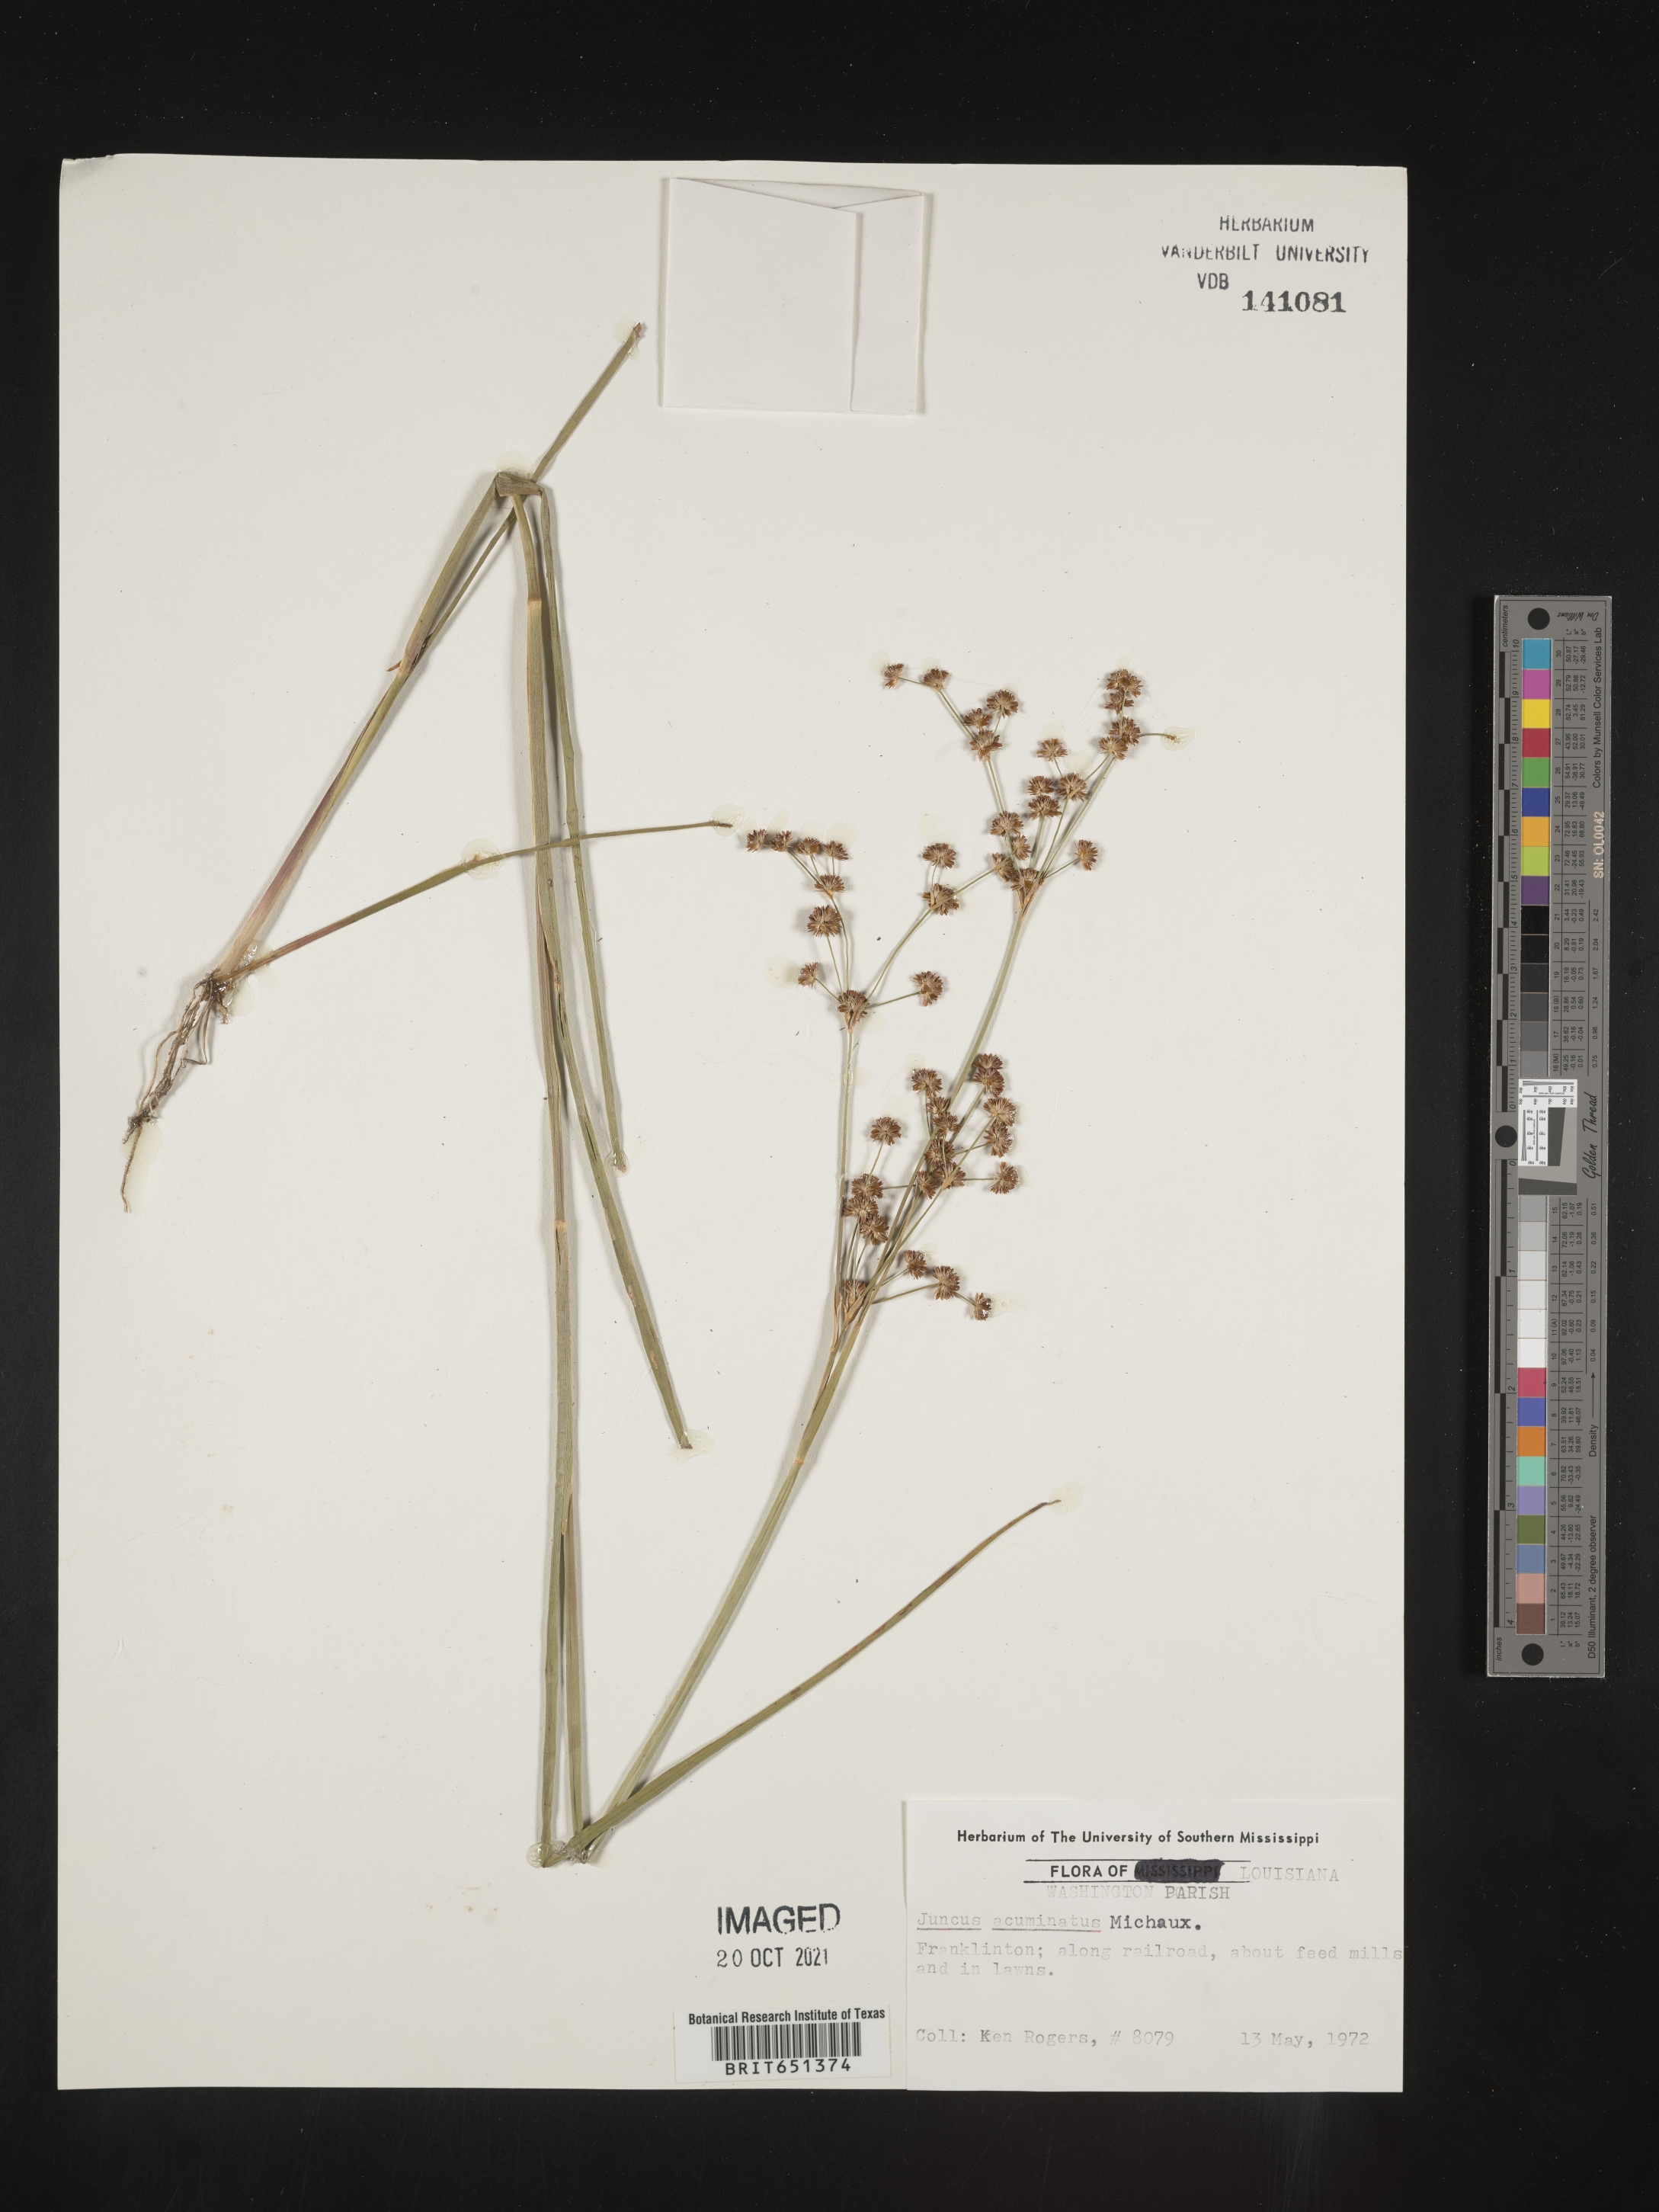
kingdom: Plantae
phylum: Tracheophyta
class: Liliopsida
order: Poales
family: Juncaceae
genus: Juncus
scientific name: Juncus acuminatus
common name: Knotty-leaved rush
